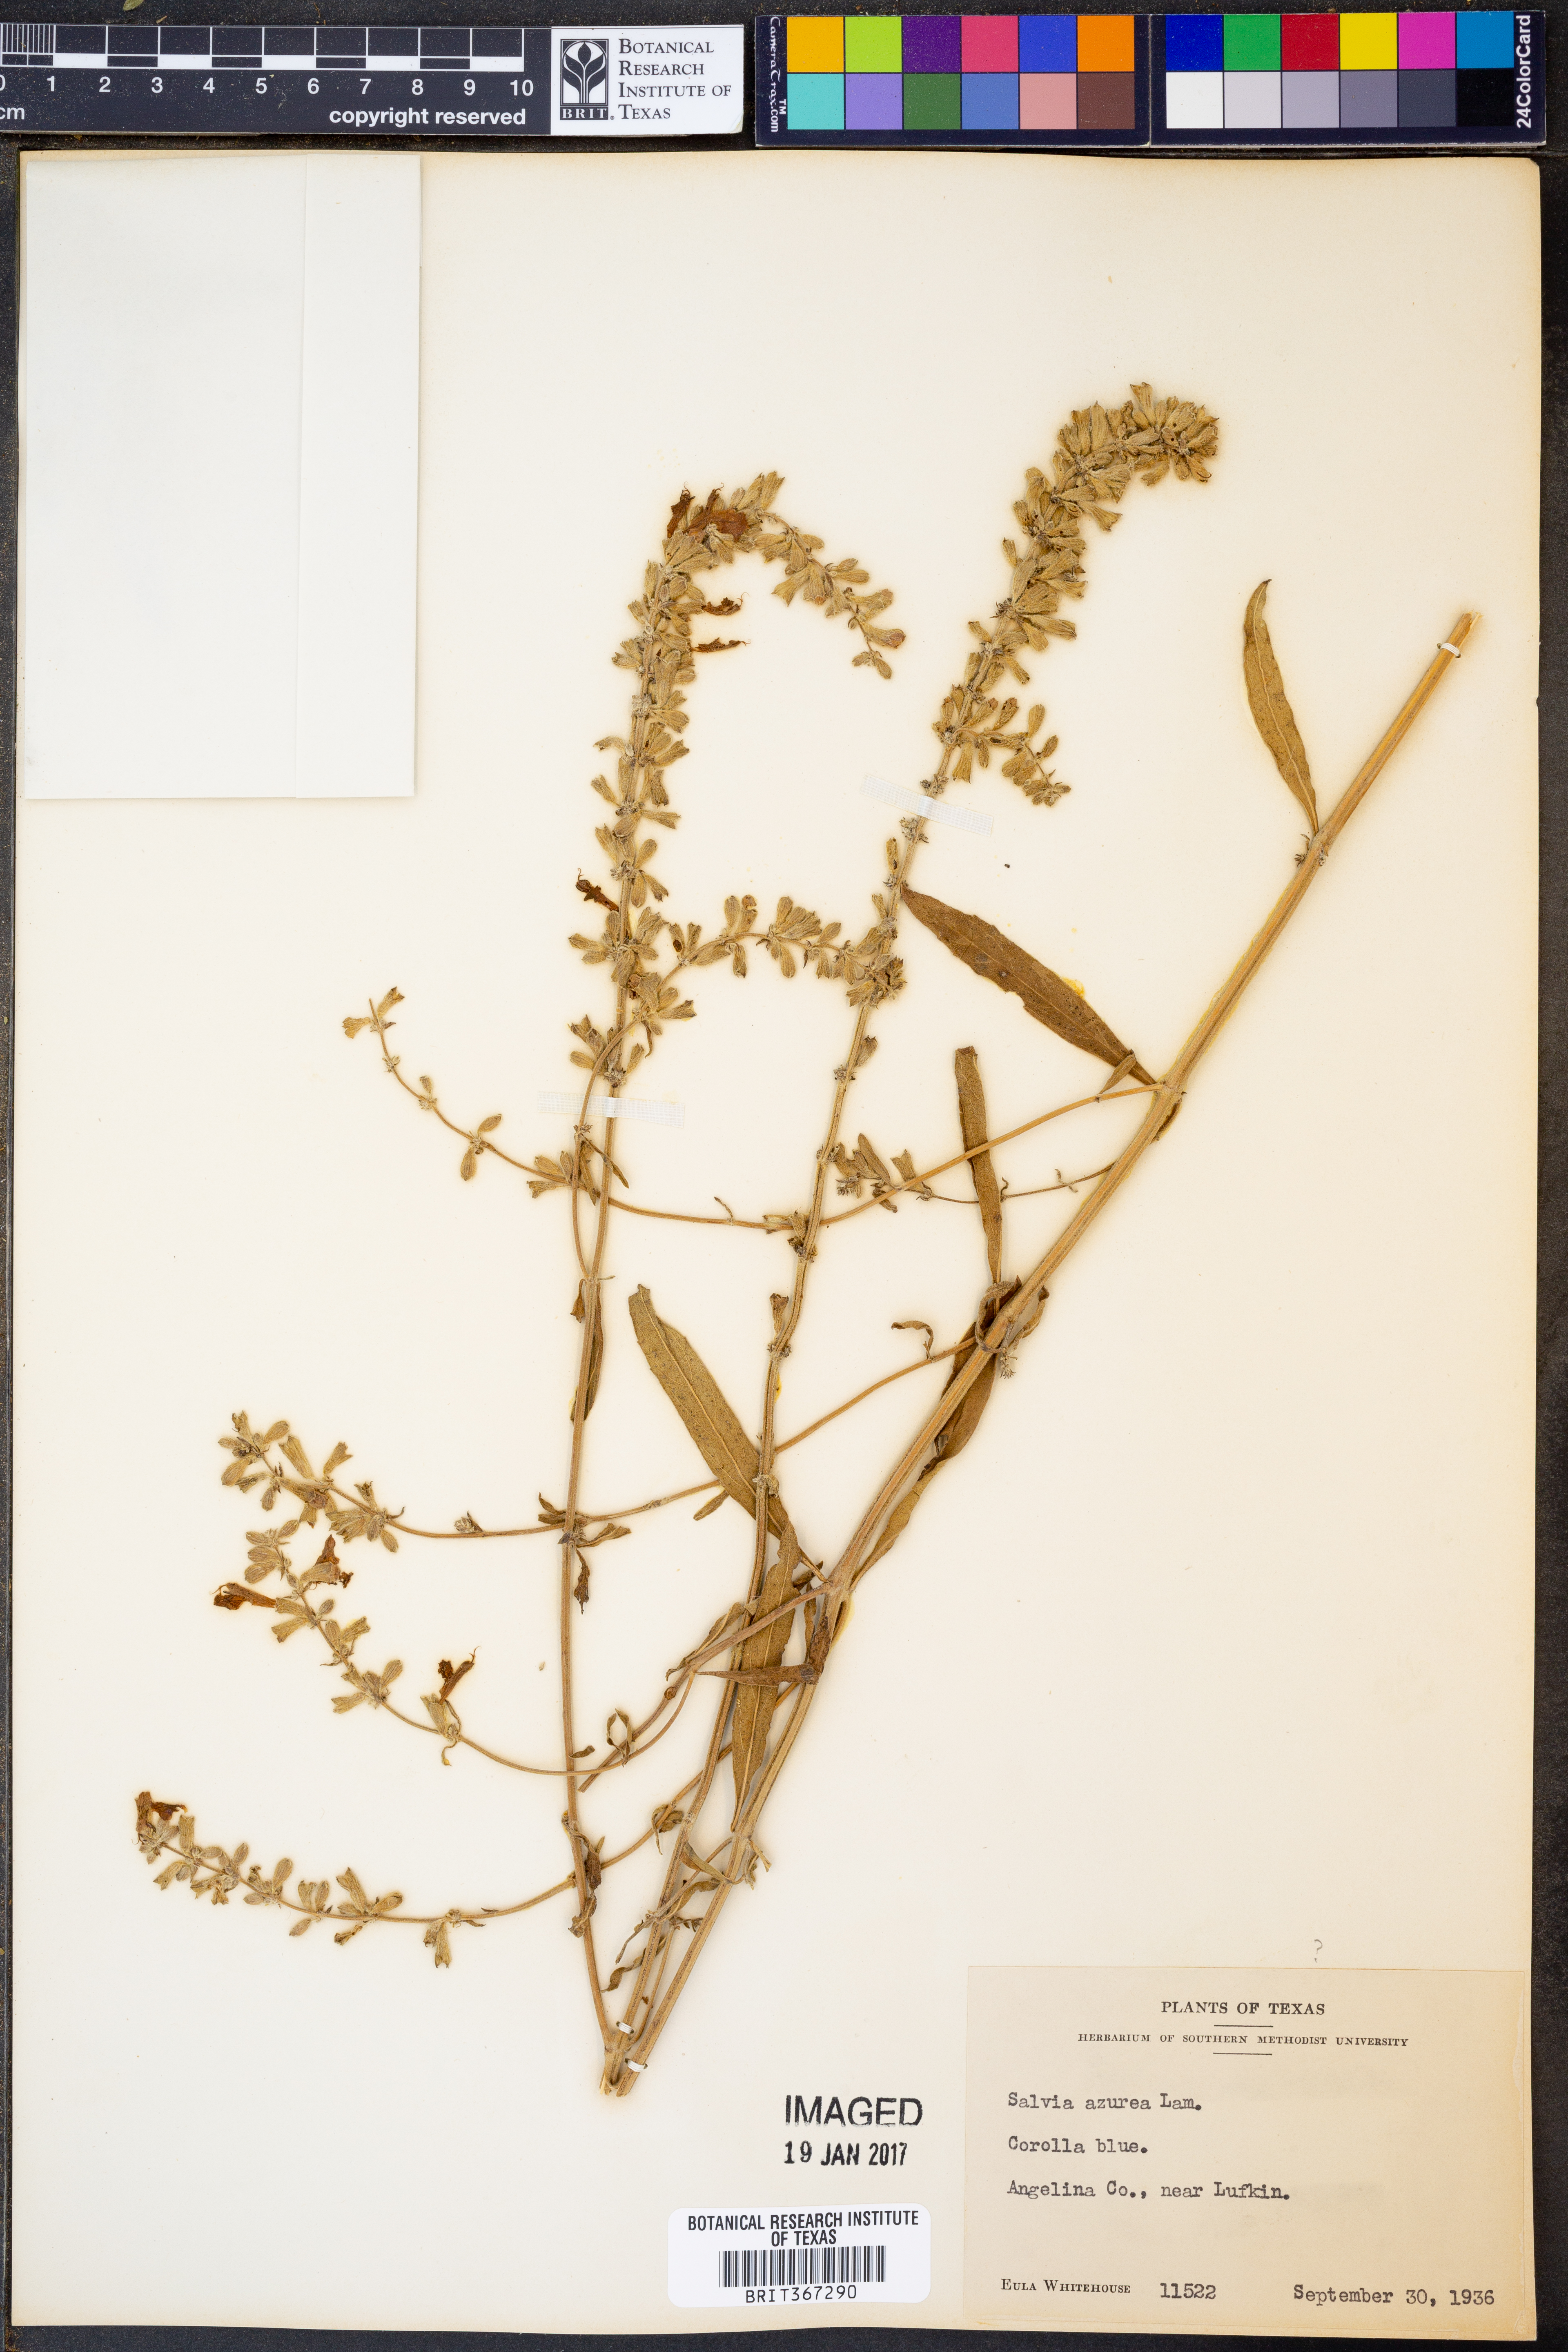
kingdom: Plantae
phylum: Tracheophyta
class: Magnoliopsida
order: Lamiales
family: Lamiaceae
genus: Salvia
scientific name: Salvia azurea
